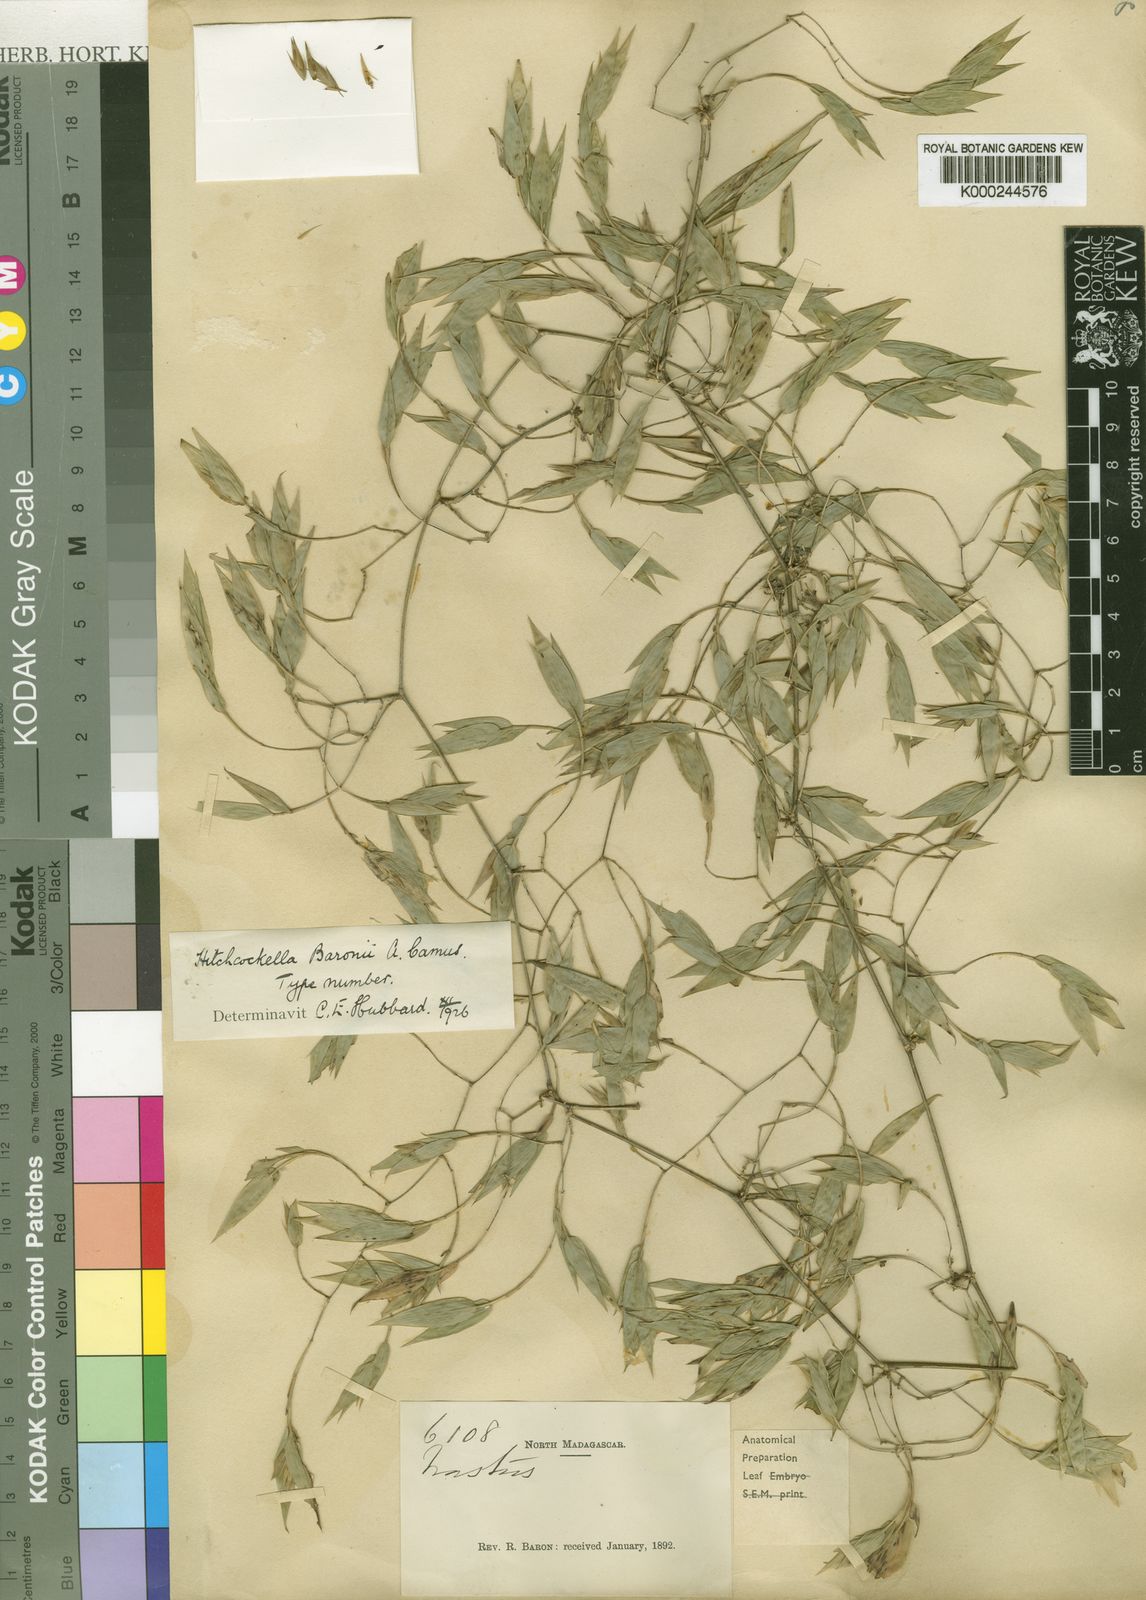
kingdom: Plantae
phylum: Tracheophyta
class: Liliopsida
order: Poales
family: Poaceae
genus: Hitchcockella
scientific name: Hitchcockella baronii
